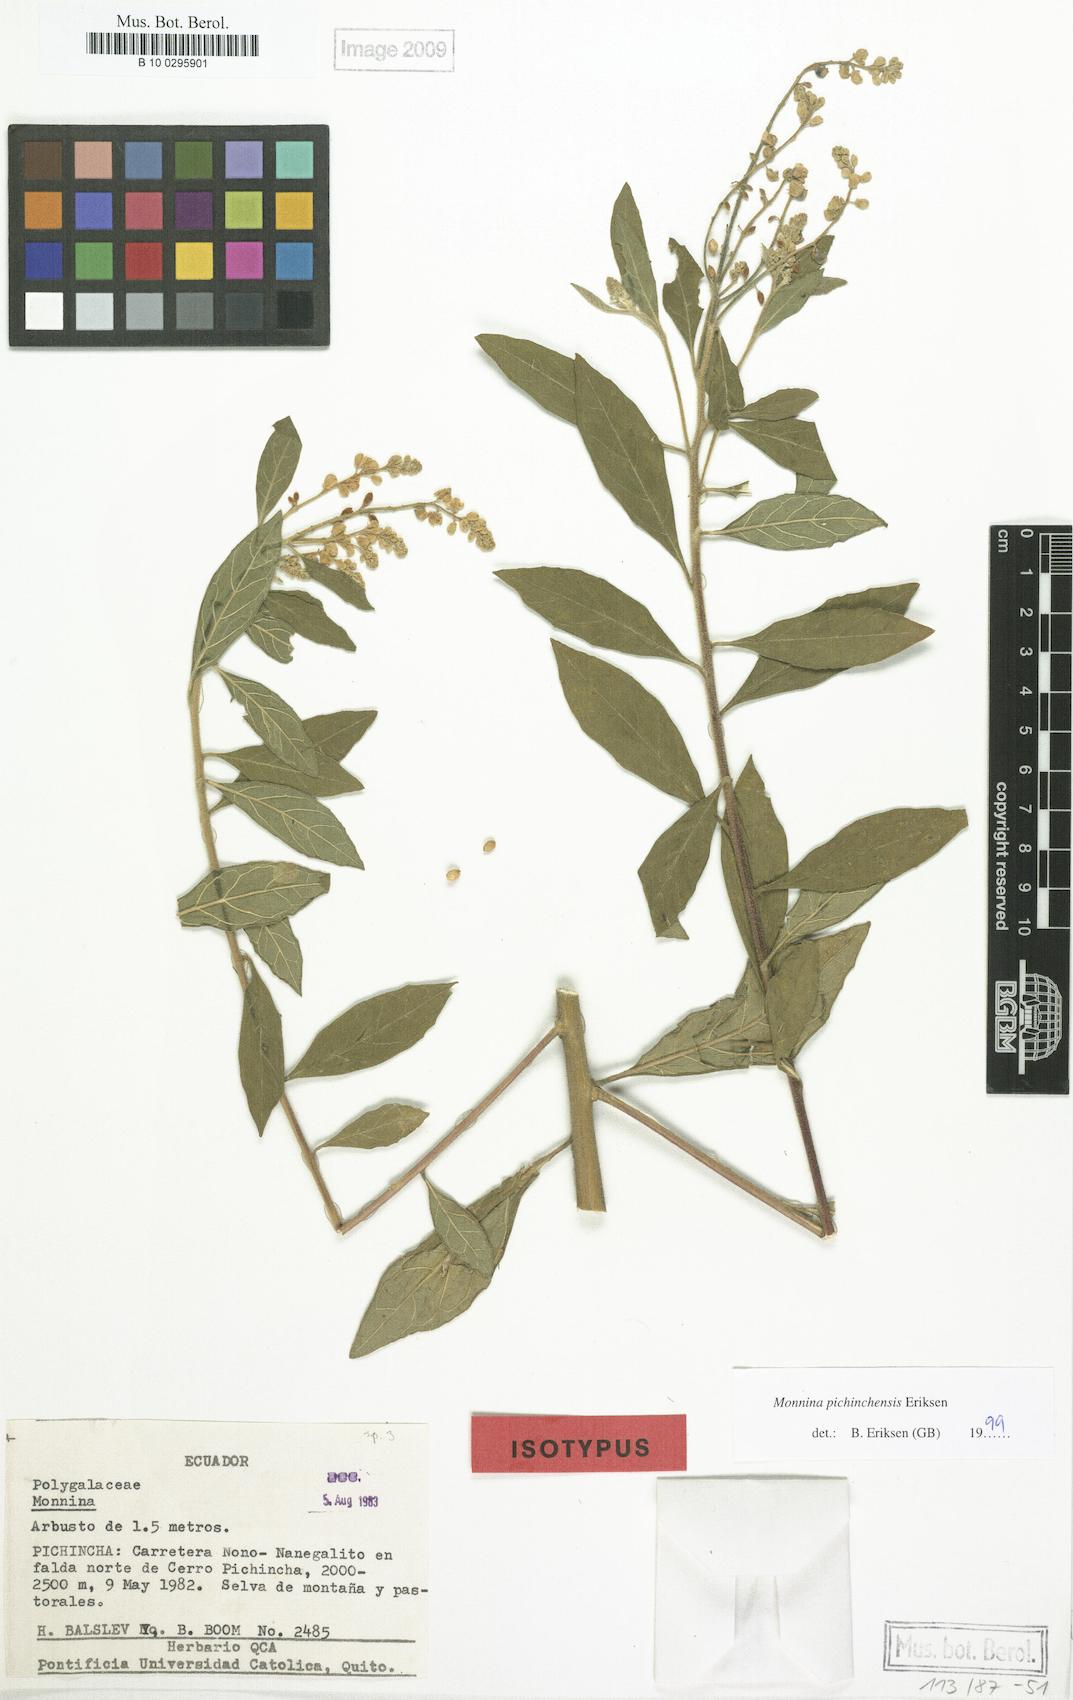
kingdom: Plantae
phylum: Tracheophyta
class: Magnoliopsida
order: Fabales
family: Polygalaceae
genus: Monnina
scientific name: Monnina pichinchensis
